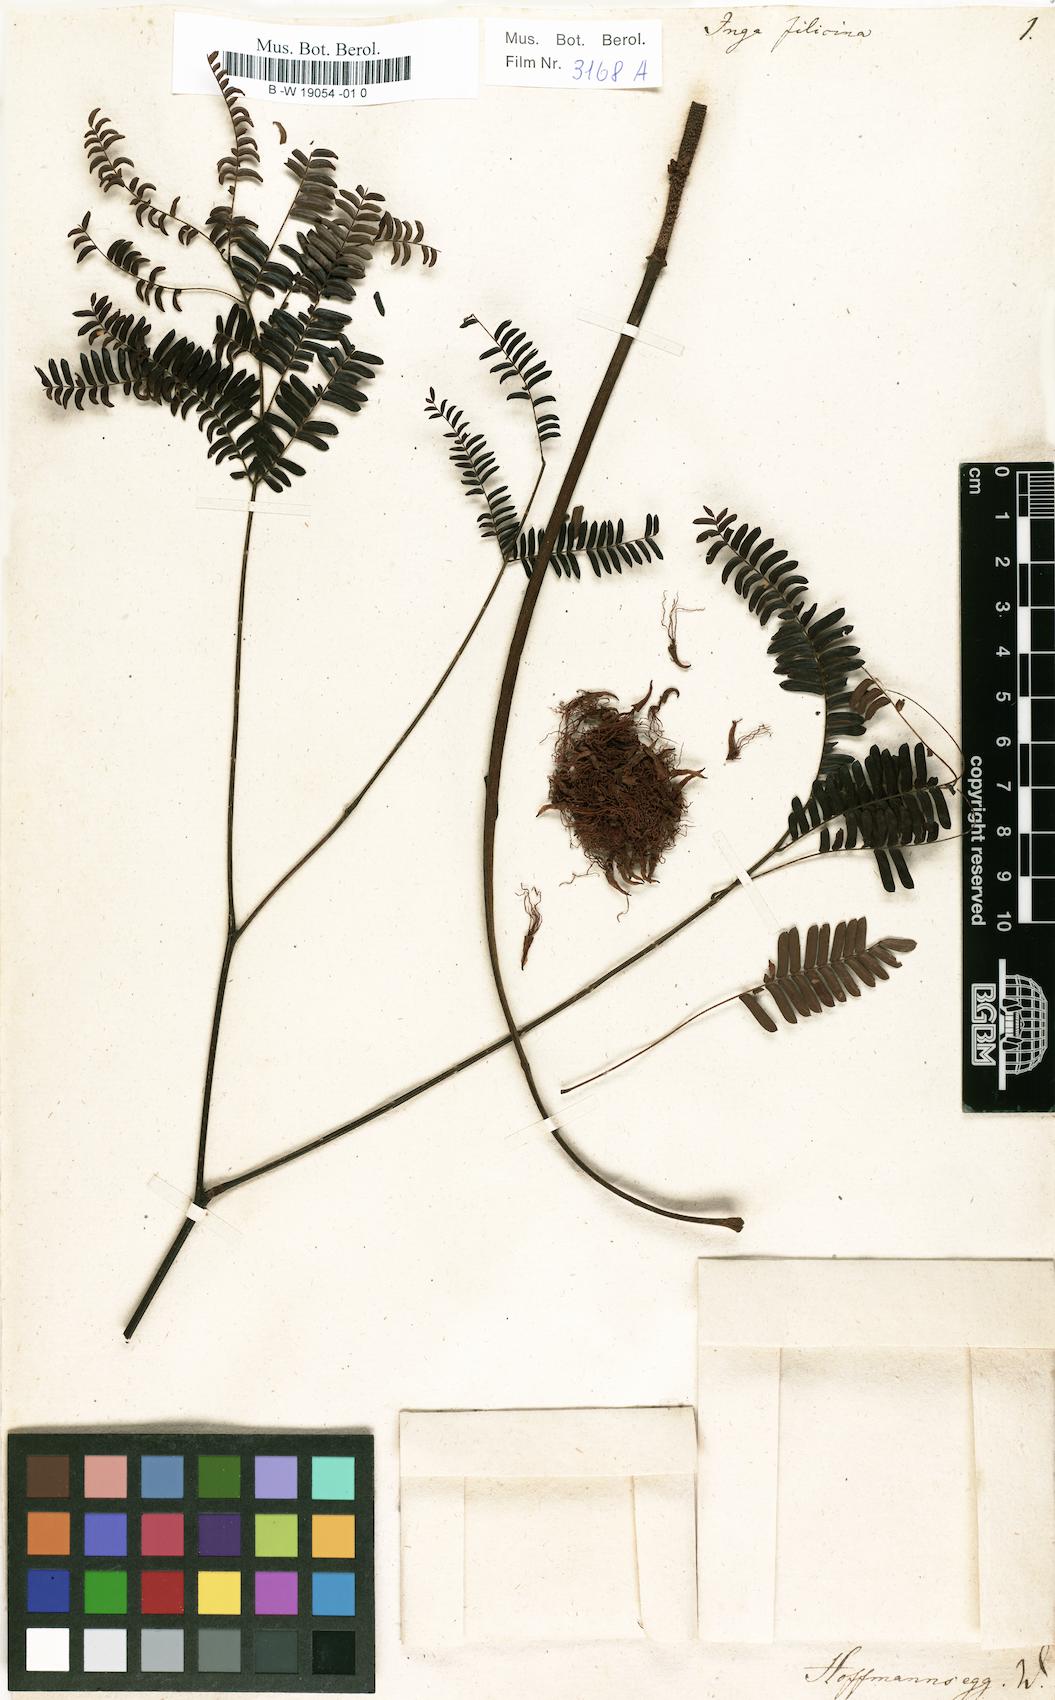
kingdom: Plantae
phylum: Tracheophyta
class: Magnoliopsida
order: Fabales
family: Fabaceae
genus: Parkia
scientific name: Parkia filicina
